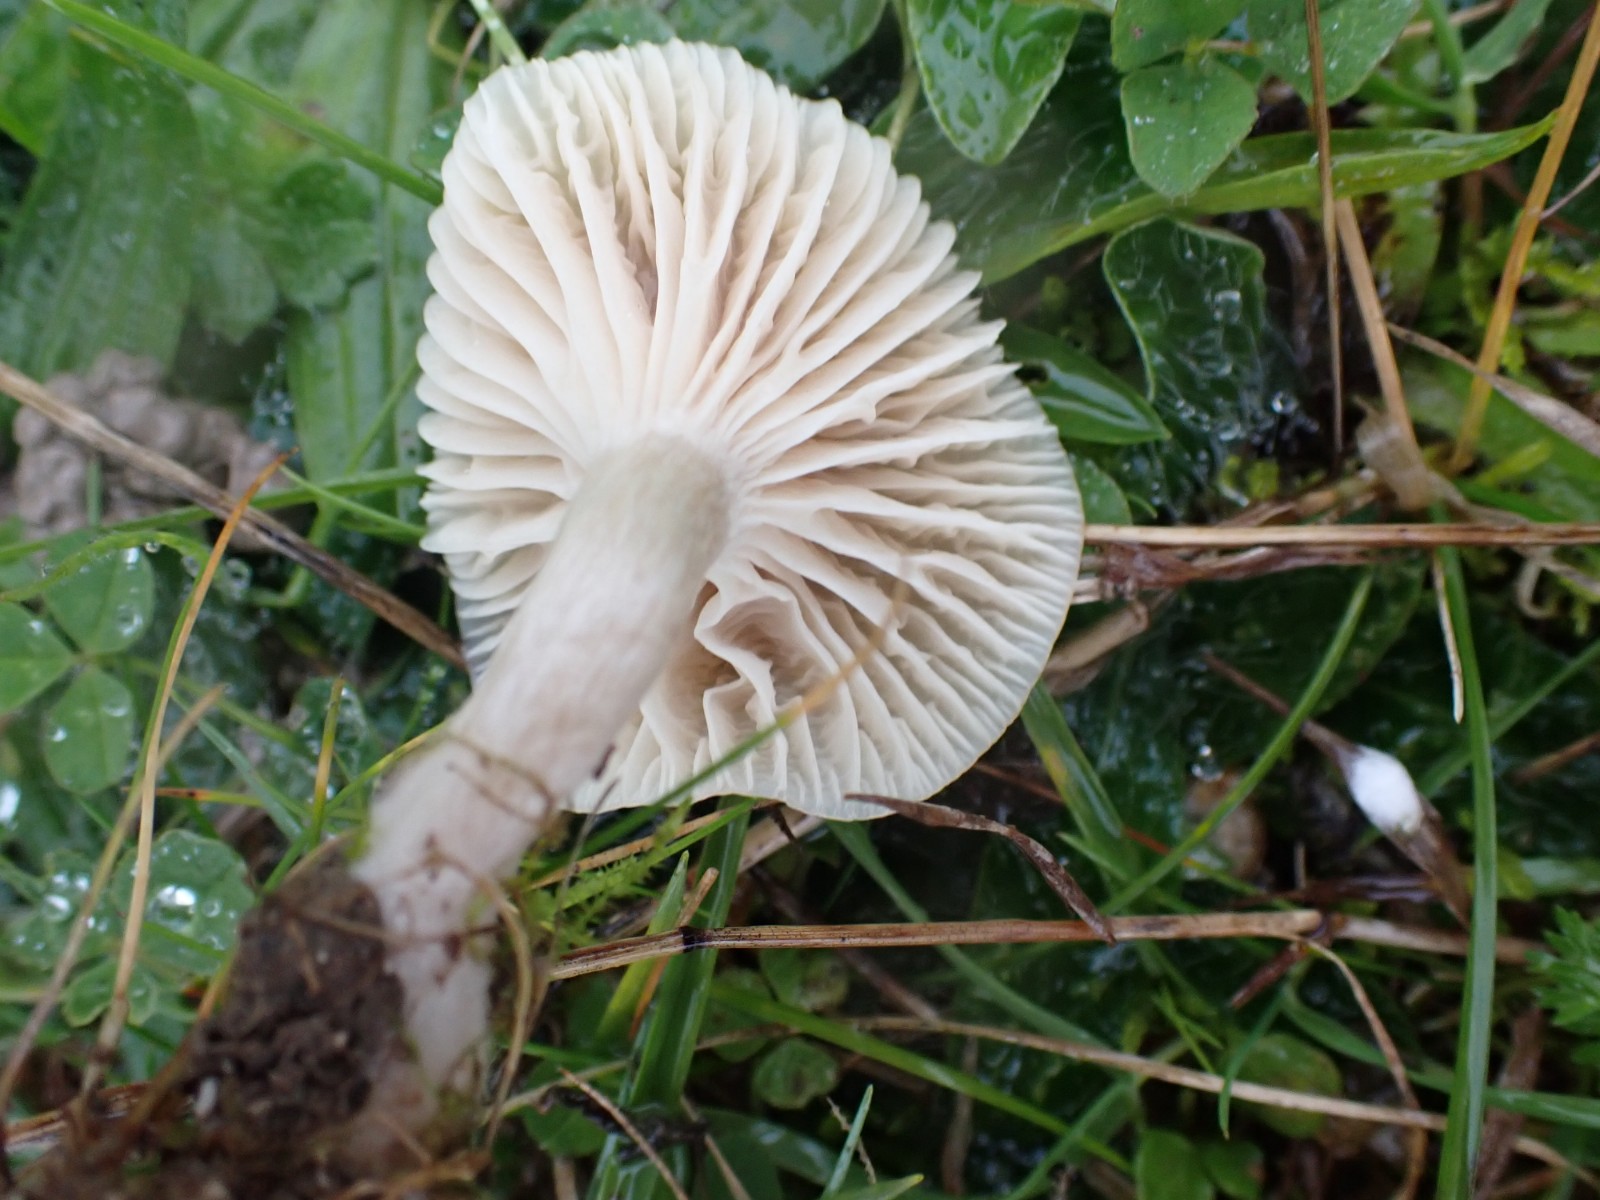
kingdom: Fungi
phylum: Basidiomycota
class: Agaricomycetes
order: Agaricales
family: Hygrophoraceae
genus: Cuphophyllus
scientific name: Cuphophyllus
